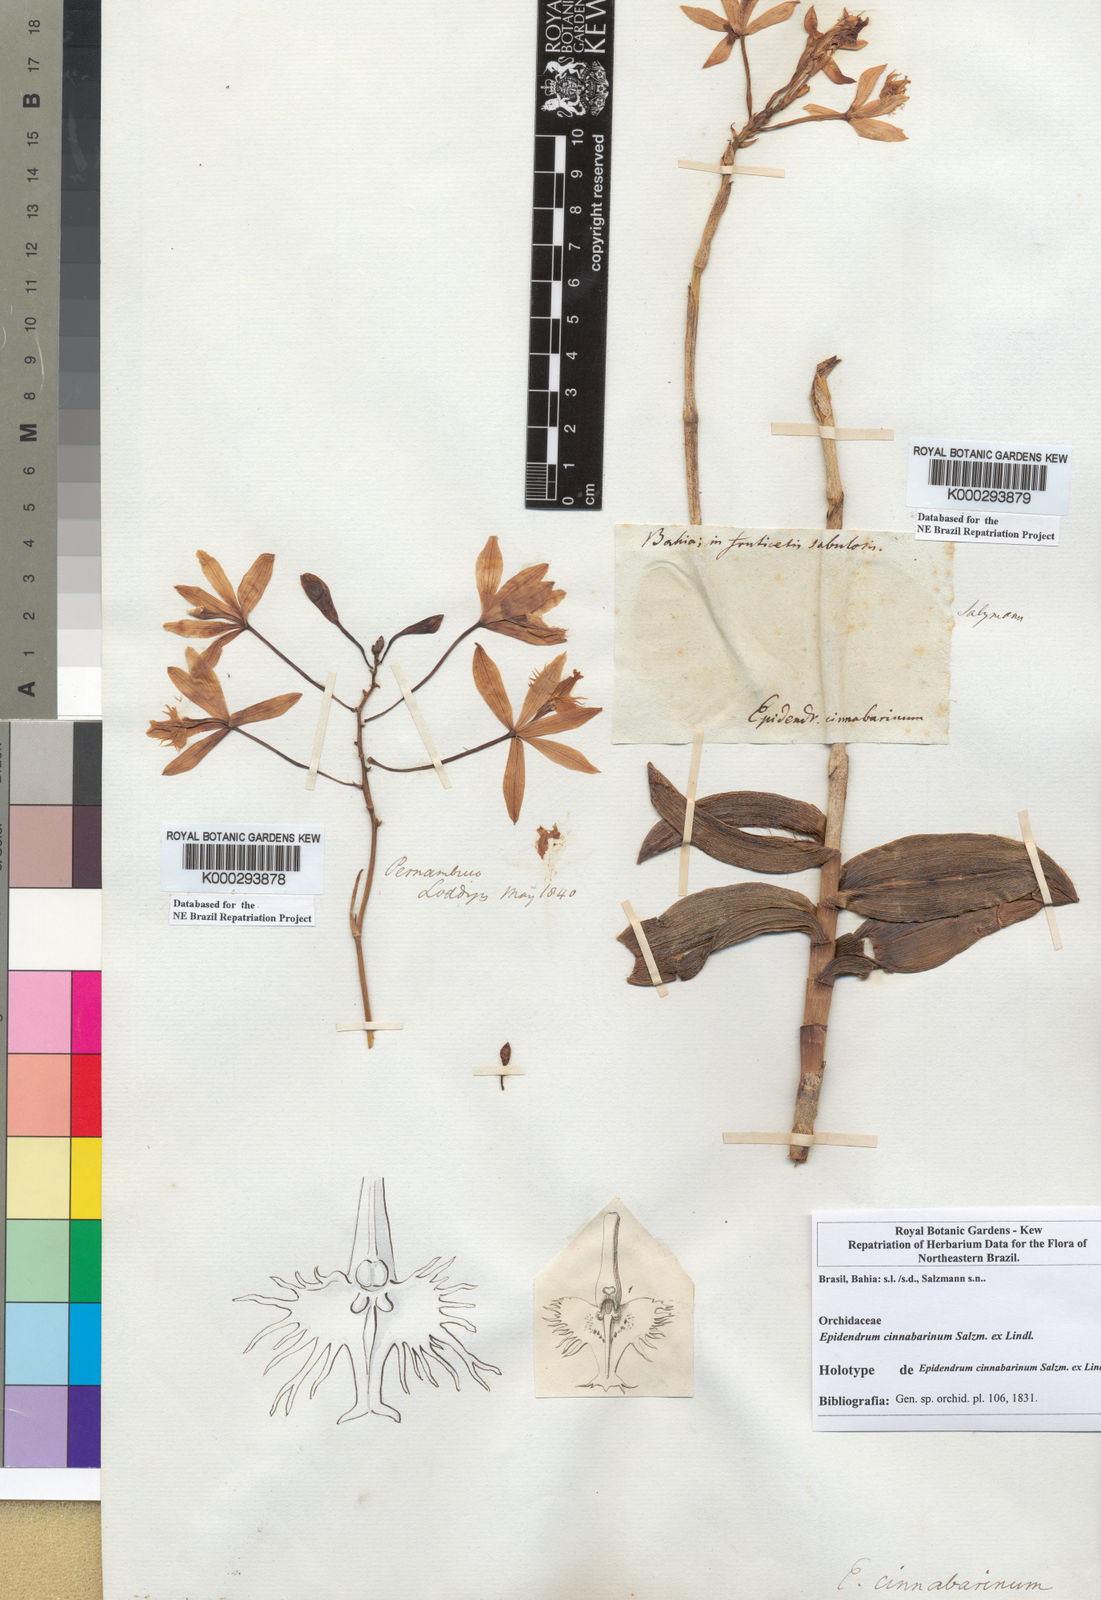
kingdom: Plantae
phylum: Tracheophyta
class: Liliopsida
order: Asparagales
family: Orchidaceae
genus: Epidendrum
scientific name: Epidendrum cinnabarinum
